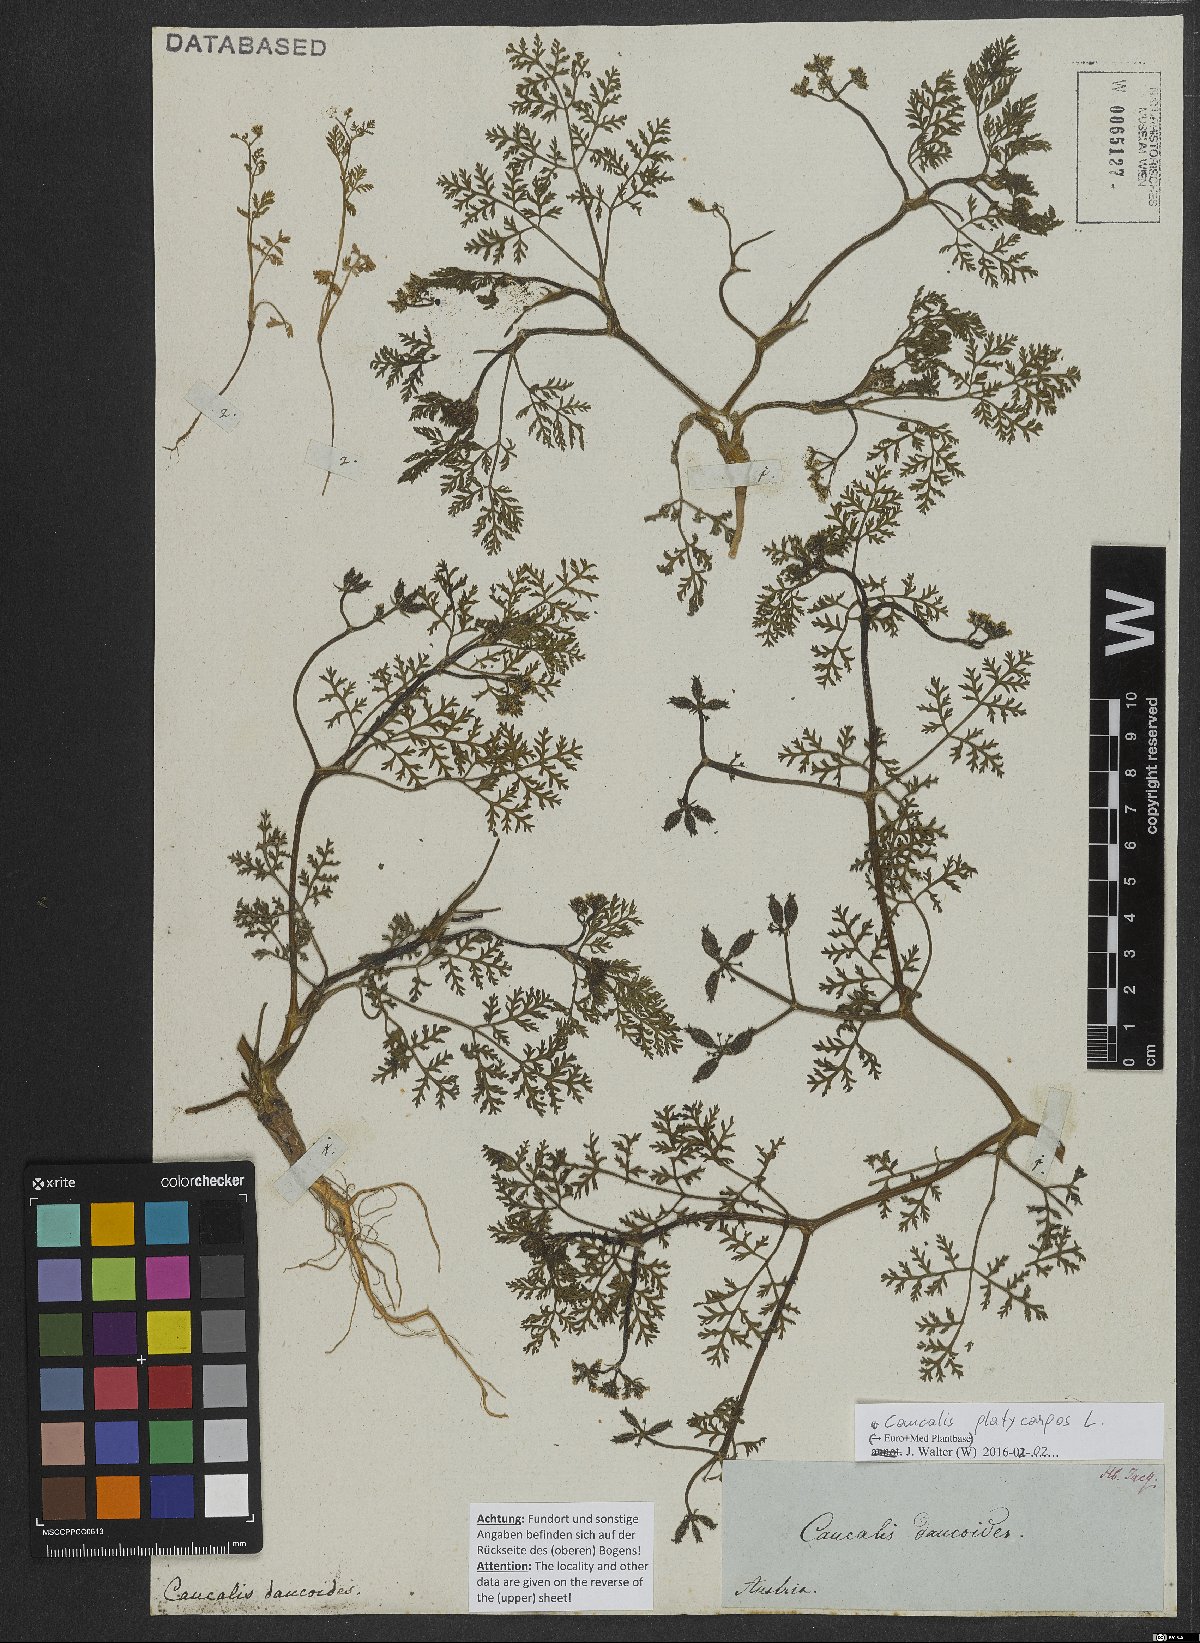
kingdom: Plantae
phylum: Tracheophyta
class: Magnoliopsida
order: Apiales
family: Apiaceae
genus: Caucalis
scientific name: Caucalis platycarpos
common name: Small bur-parsley
